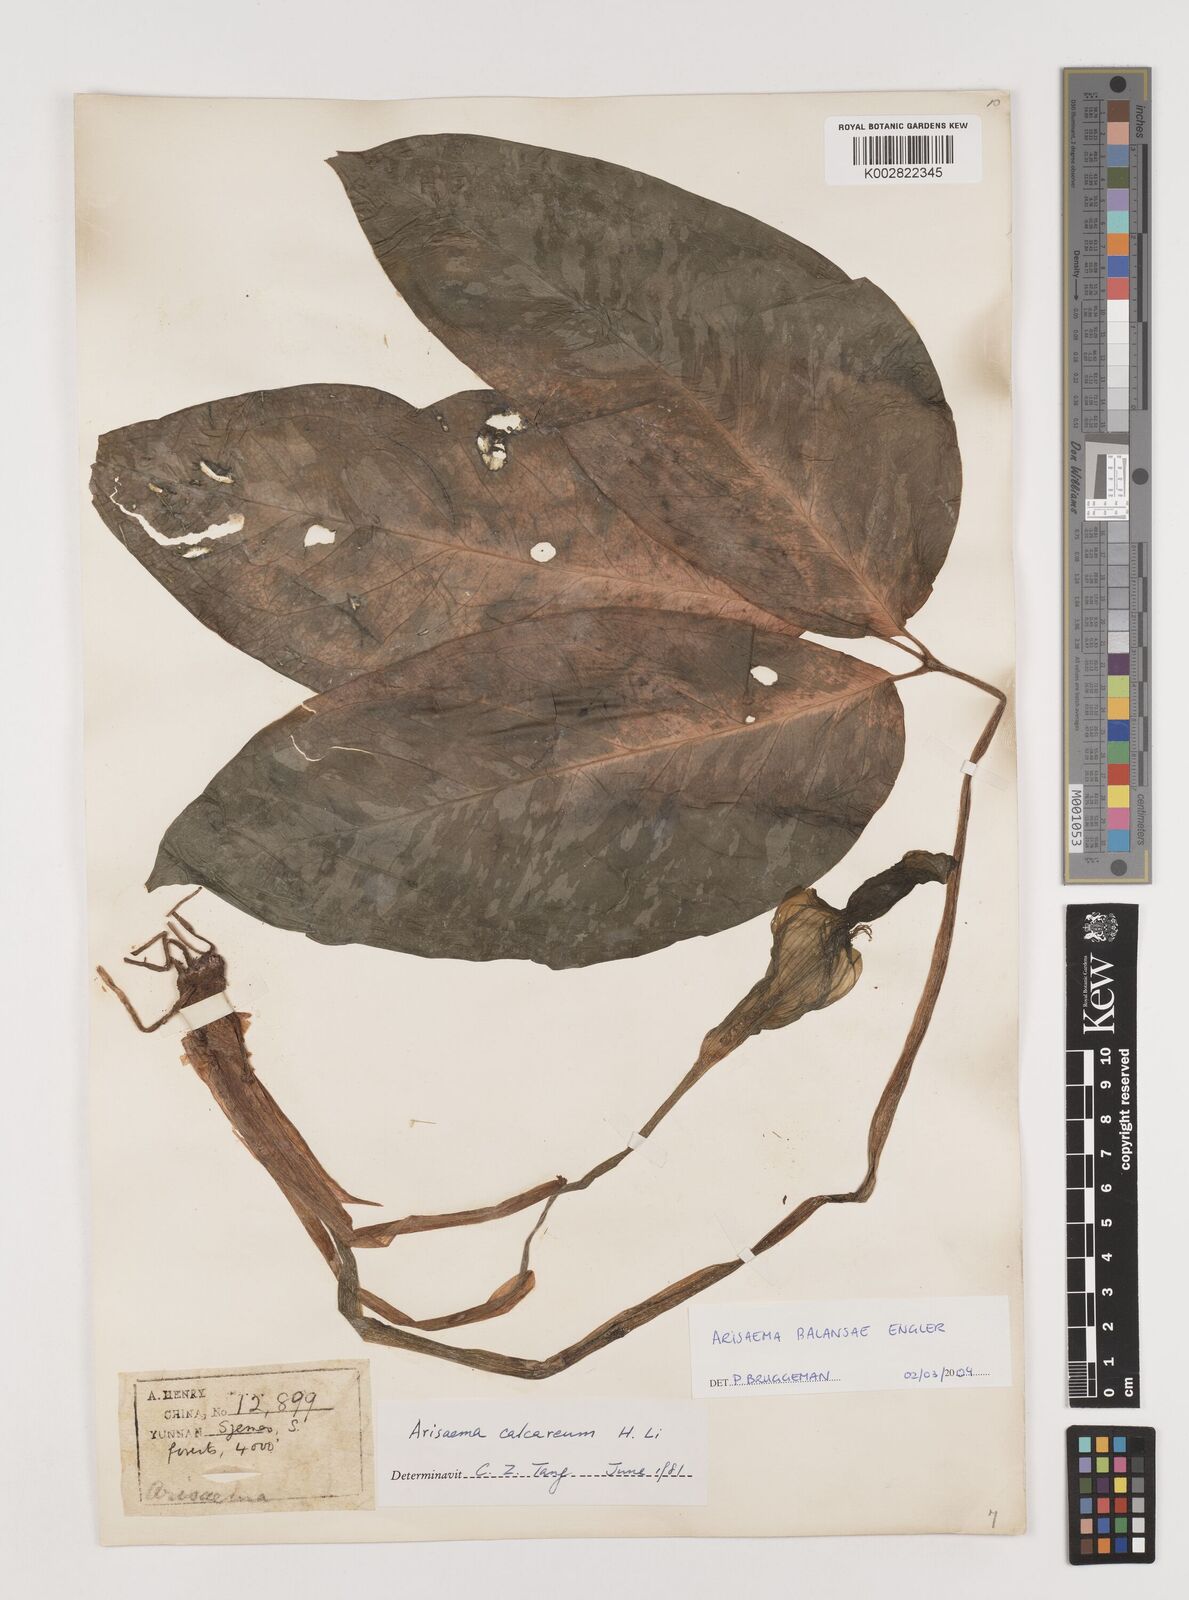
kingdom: Plantae
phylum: Tracheophyta
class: Liliopsida
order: Alismatales
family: Araceae
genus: Arisaema
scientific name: Arisaema calcareum
